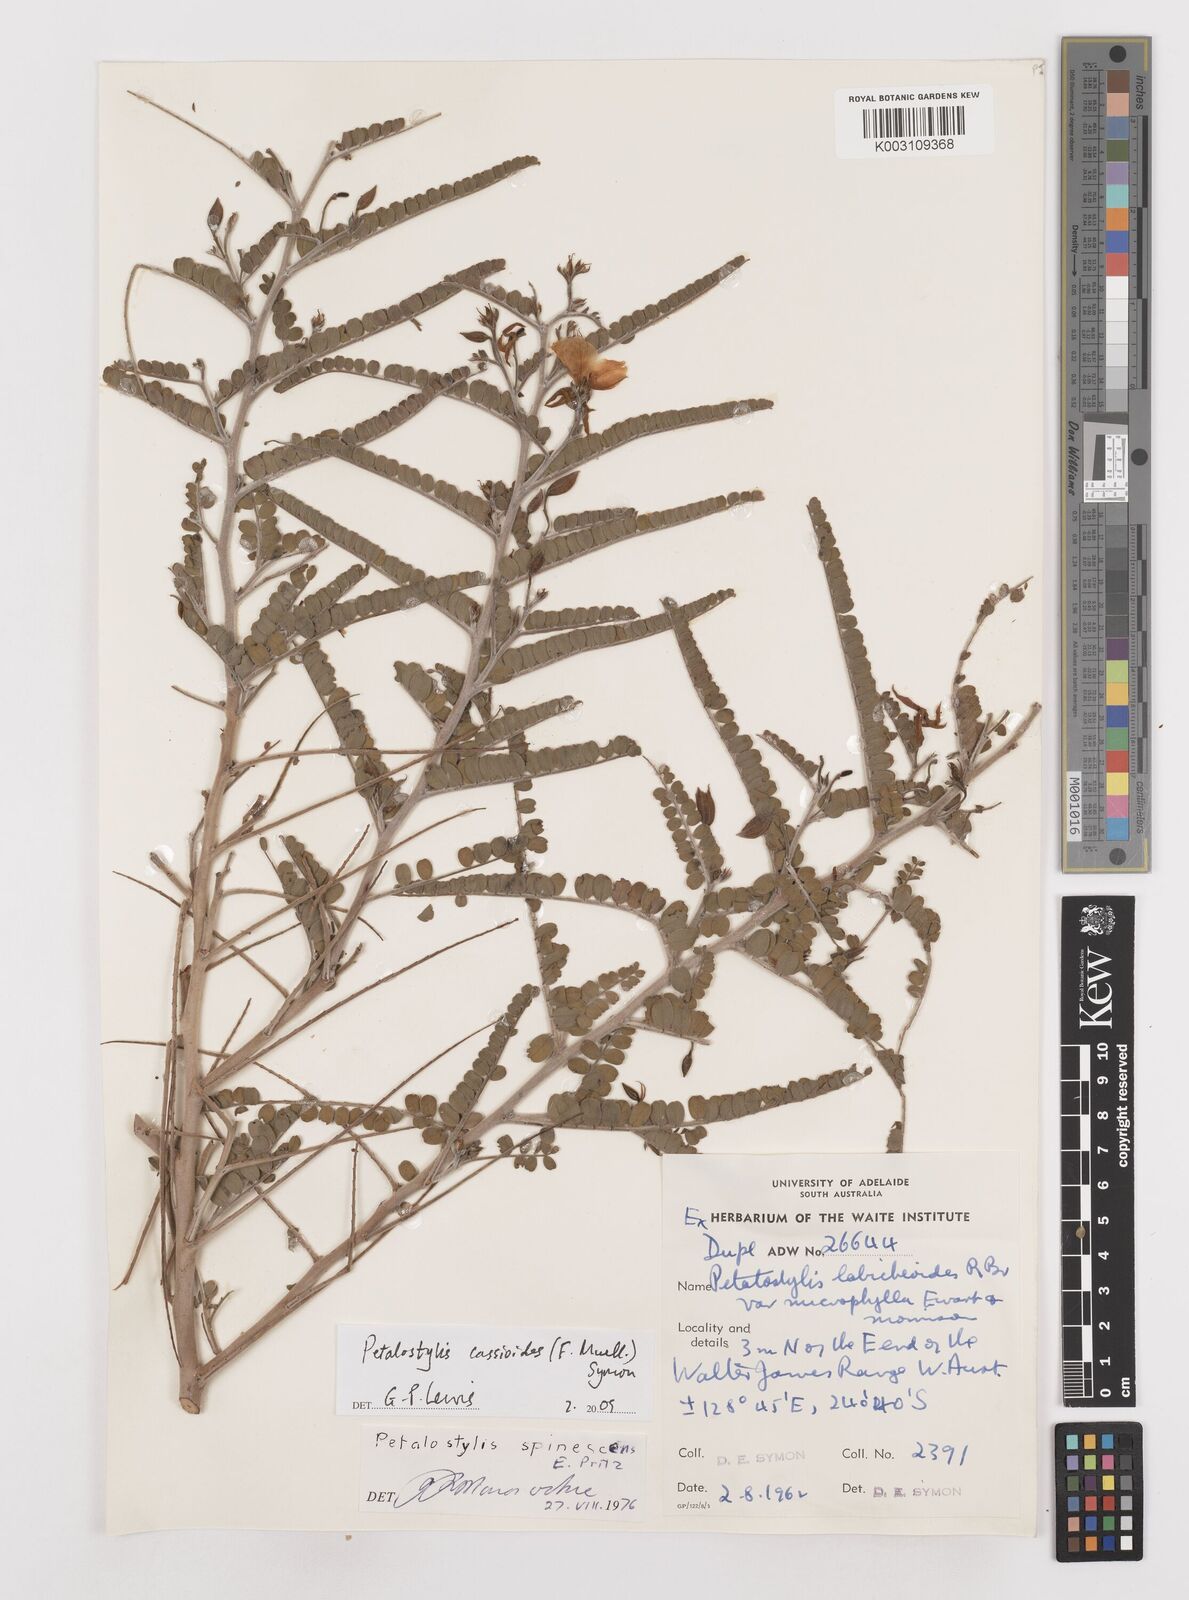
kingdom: Plantae
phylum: Tracheophyta
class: Magnoliopsida
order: Fabales
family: Fabaceae
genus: Petalostylis
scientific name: Petalostylis cassioides
